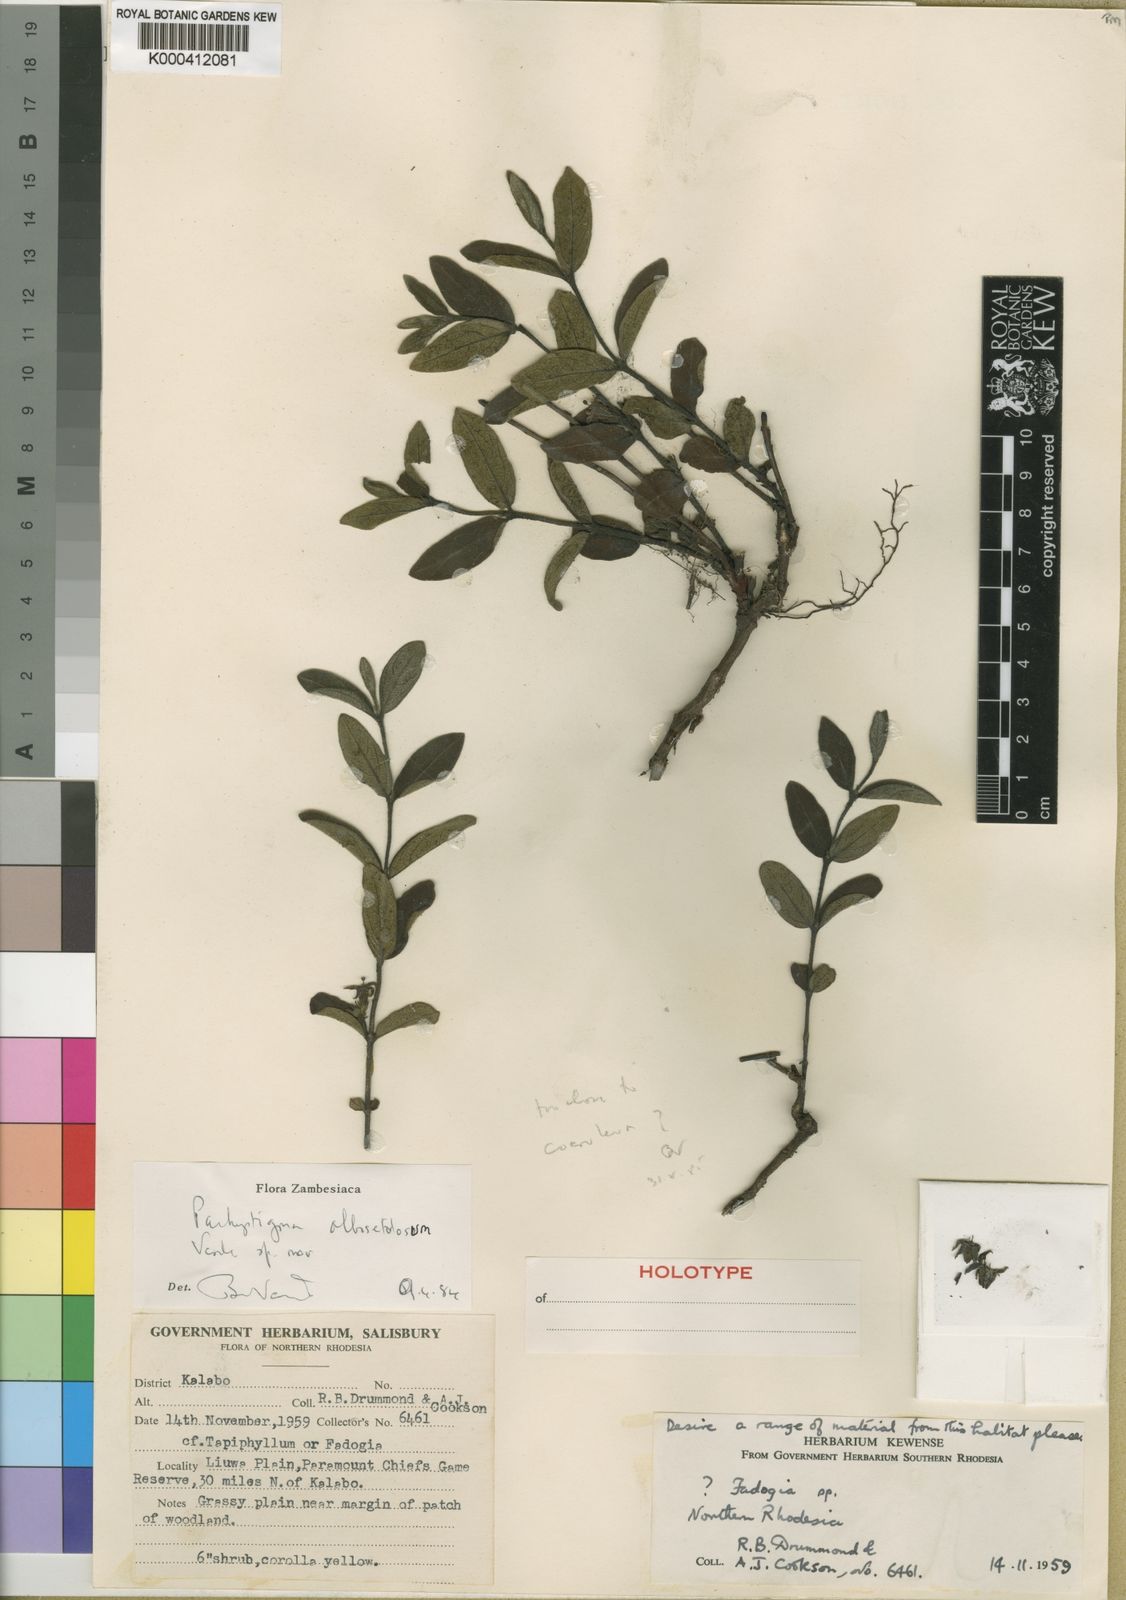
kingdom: Plantae
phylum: Tracheophyta
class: Magnoliopsida
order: Gentianales
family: Rubiaceae
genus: Vangueria
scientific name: Vangueria albosetulosa
